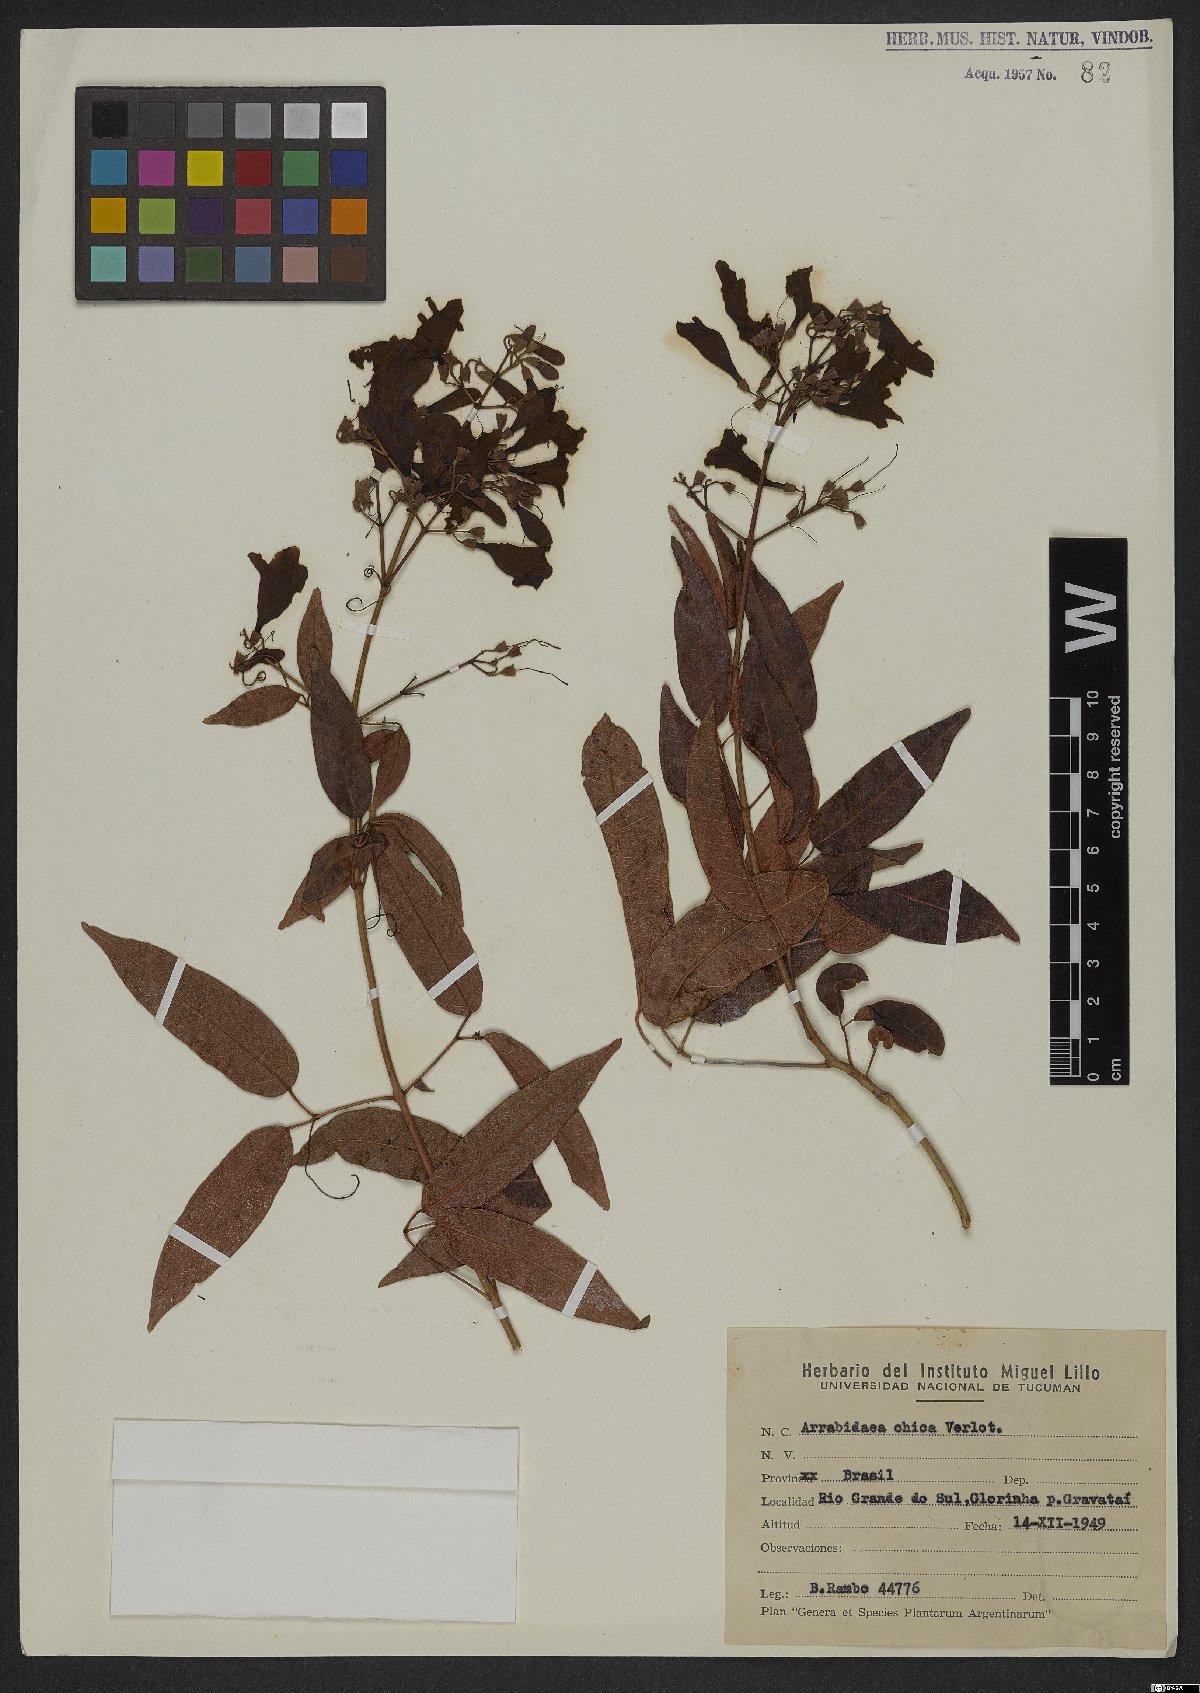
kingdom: Plantae
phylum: Tracheophyta
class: Magnoliopsida
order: Lamiales
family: Bignoniaceae
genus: Fridericia
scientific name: Fridericia chica
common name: Cricketvine
